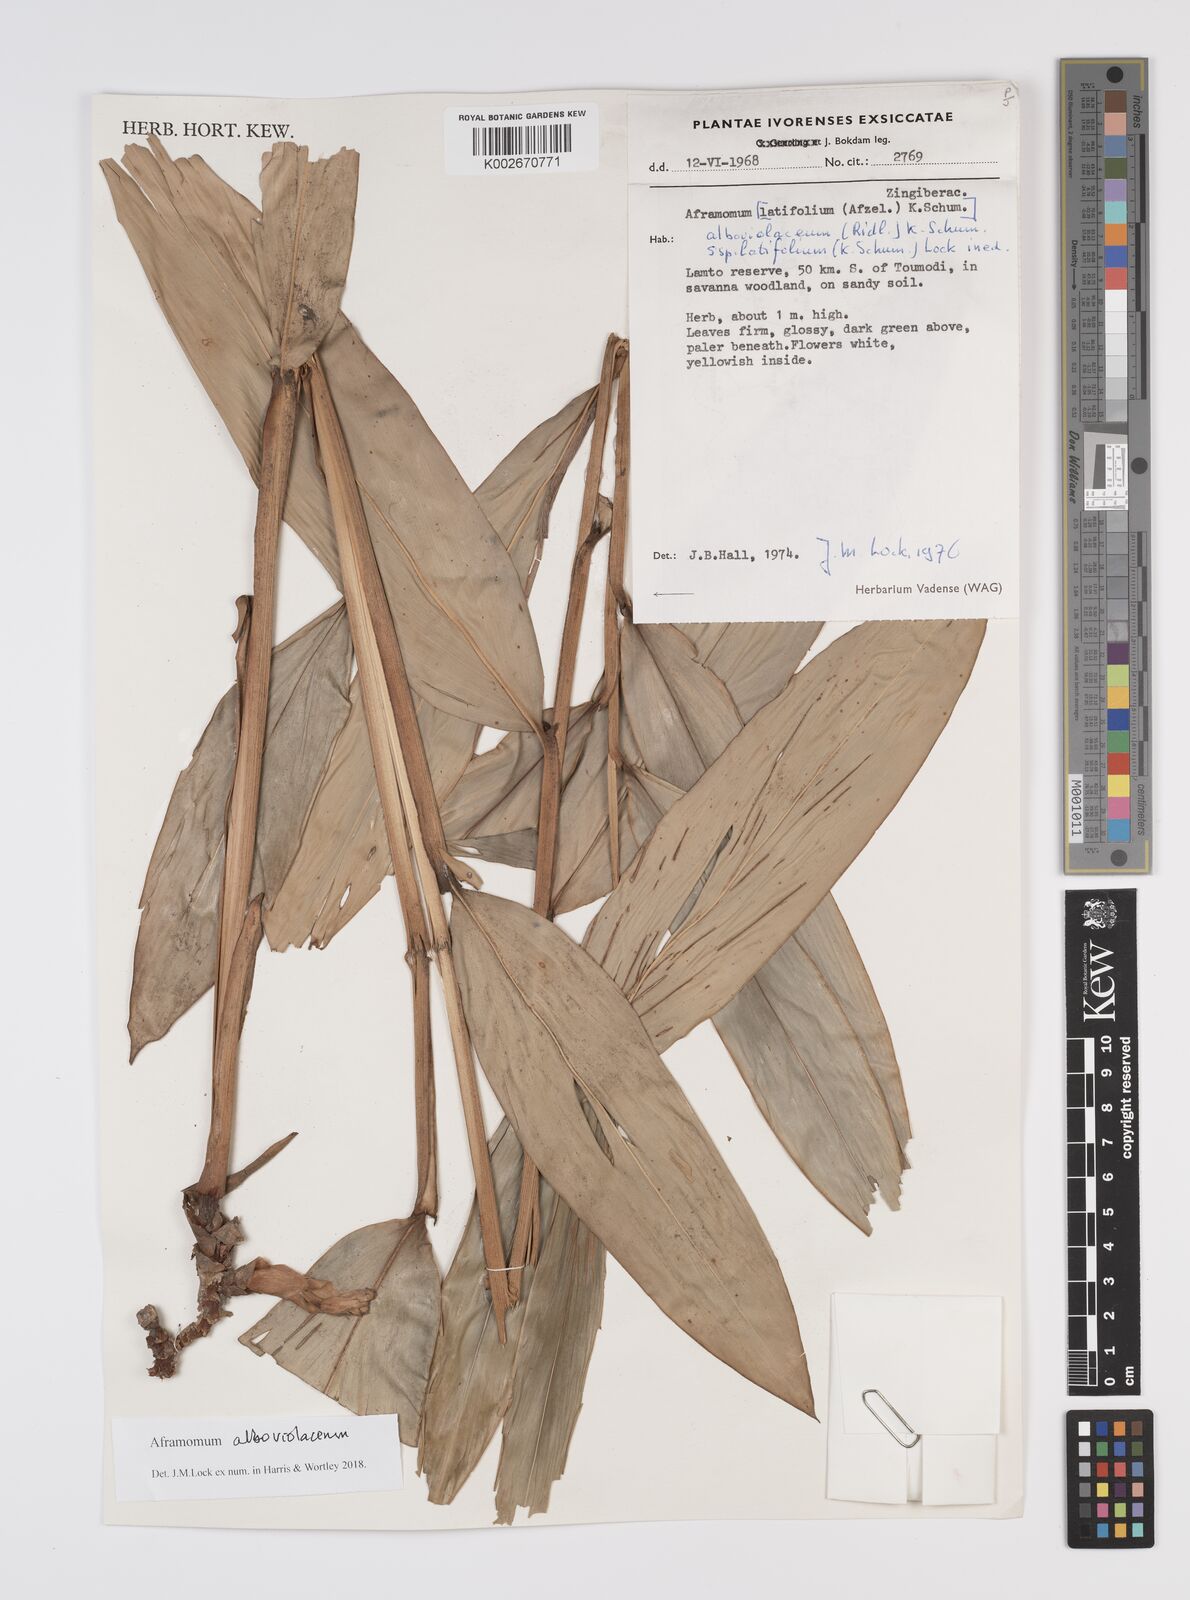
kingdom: Plantae
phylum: Tracheophyta
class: Liliopsida
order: Zingiberales
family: Zingiberaceae
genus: Aframomum
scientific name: Aframomum alboviolaceum
